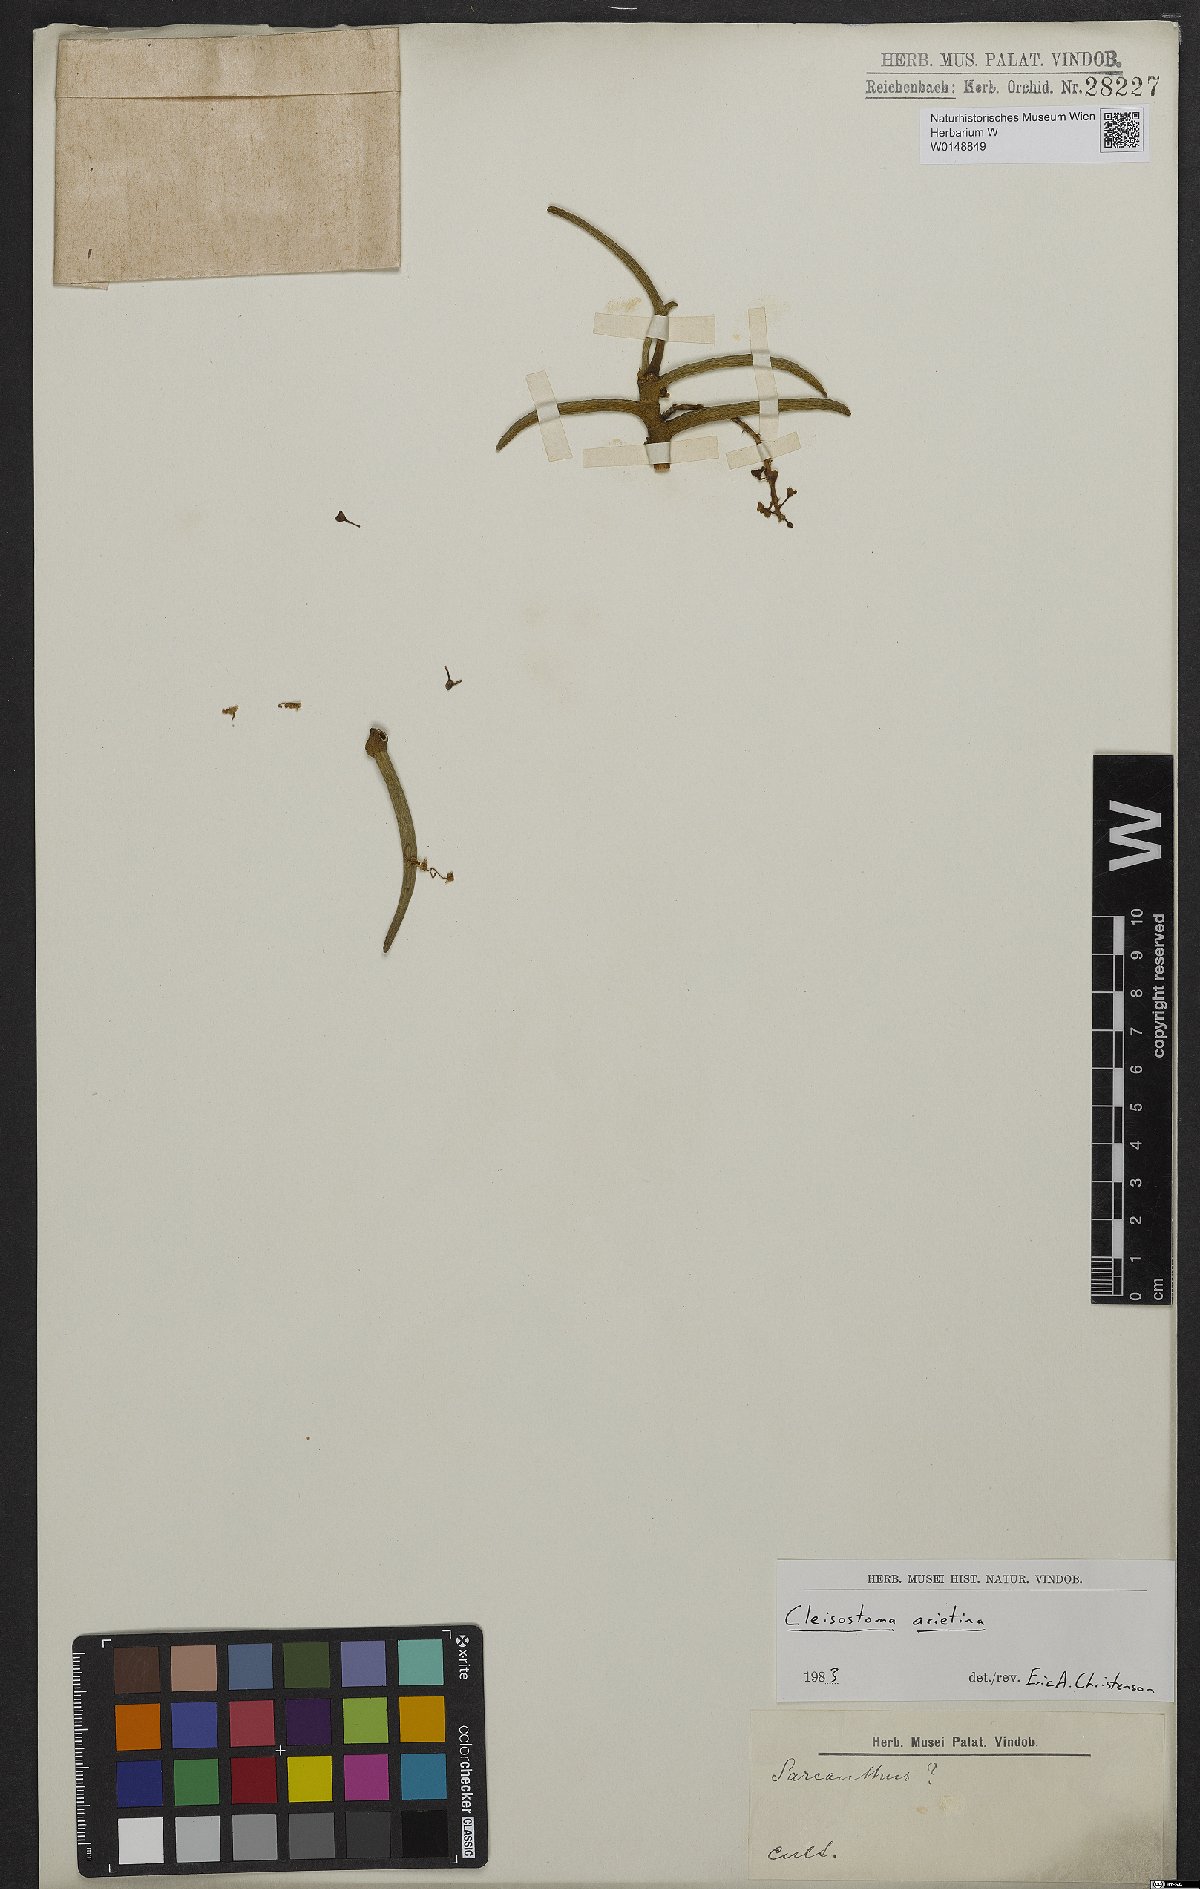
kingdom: Plantae
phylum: Tracheophyta
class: Liliopsida
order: Asparagales
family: Orchidaceae
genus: Cleisostoma
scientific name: Cleisostoma arietinum
